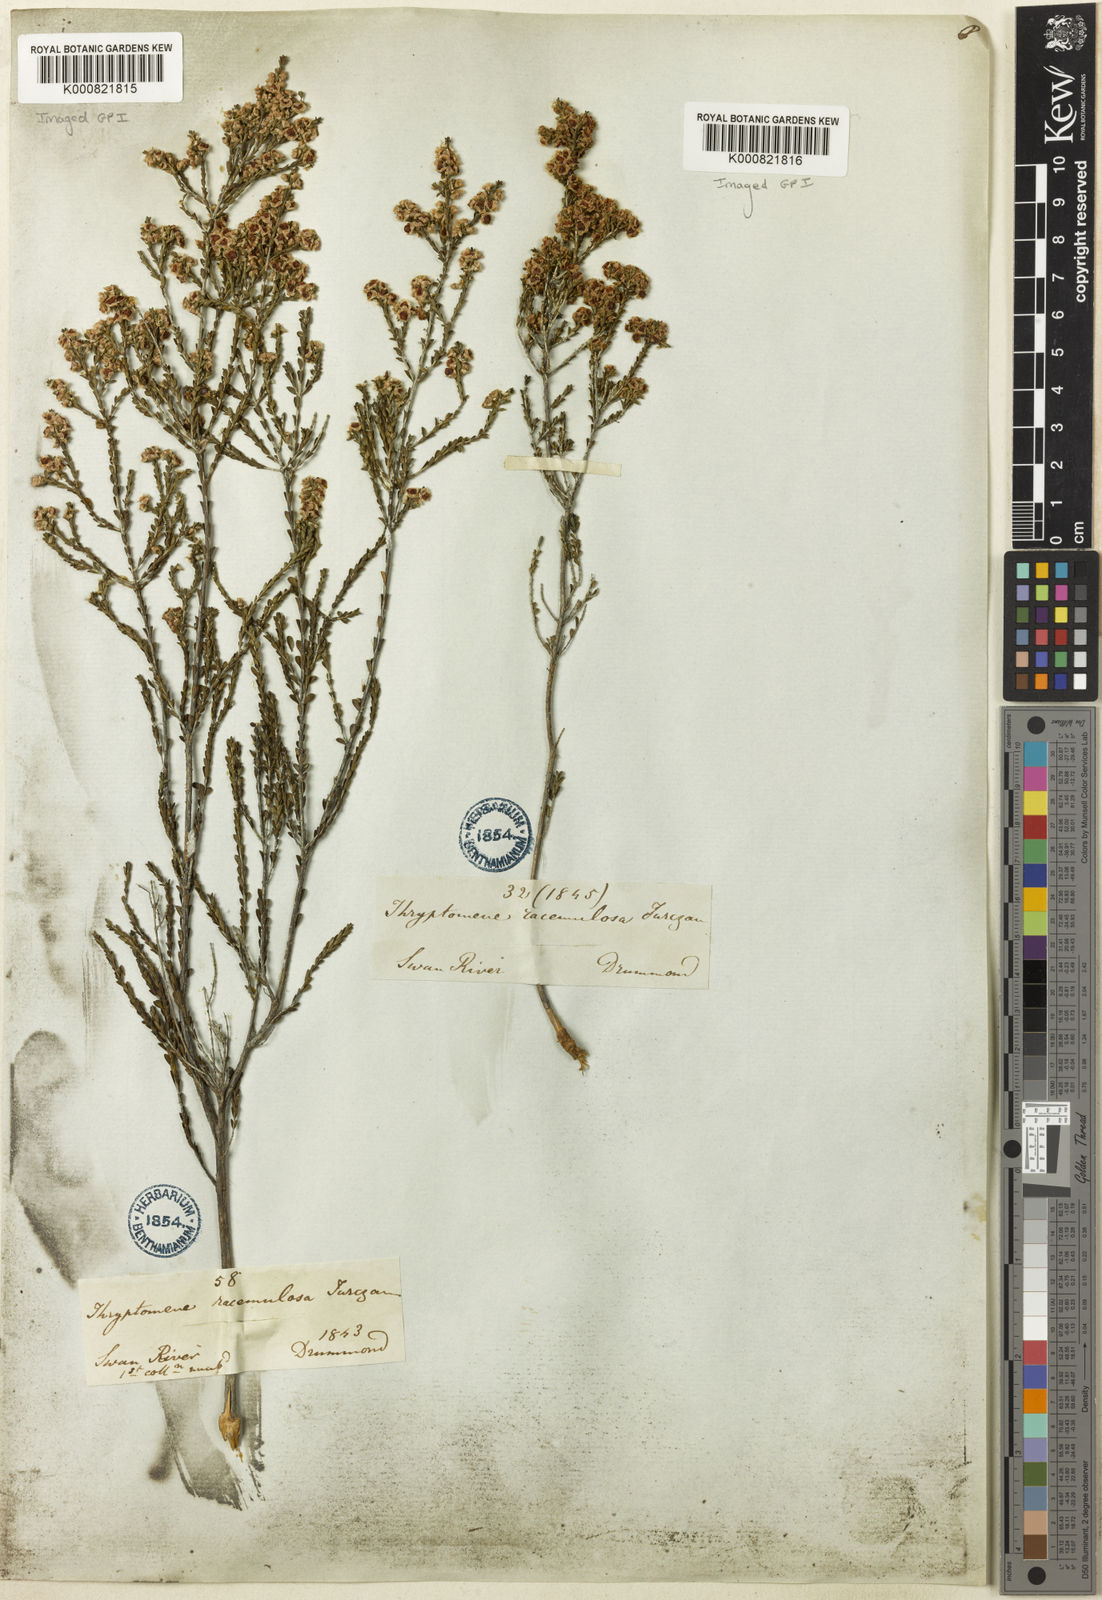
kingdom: Plantae
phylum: Tracheophyta
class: Magnoliopsida
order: Myrtales
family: Myrtaceae
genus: Thryptomene
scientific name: Thryptomene racemulosa
